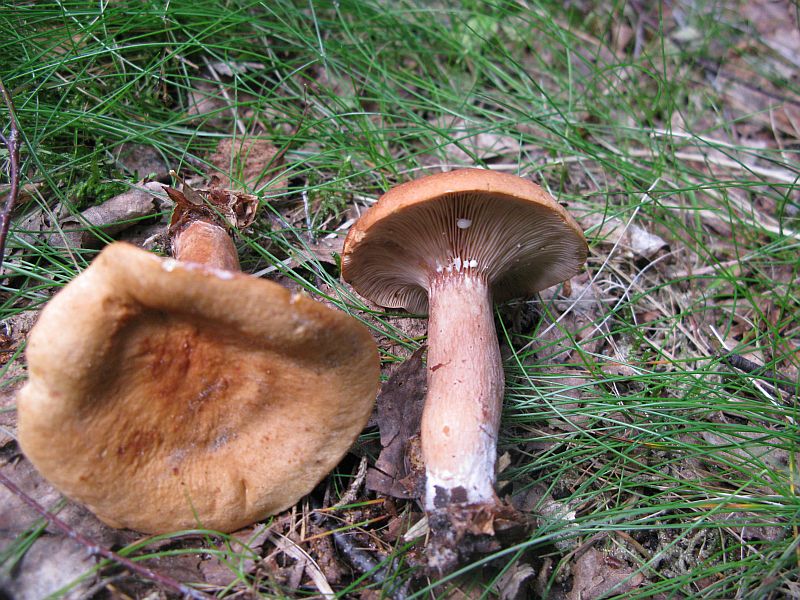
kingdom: Fungi
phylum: Basidiomycota
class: Agaricomycetes
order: Russulales
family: Russulaceae
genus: Lactarius
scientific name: Lactarius rubrocinctus
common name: halsbånd-mælkehat
